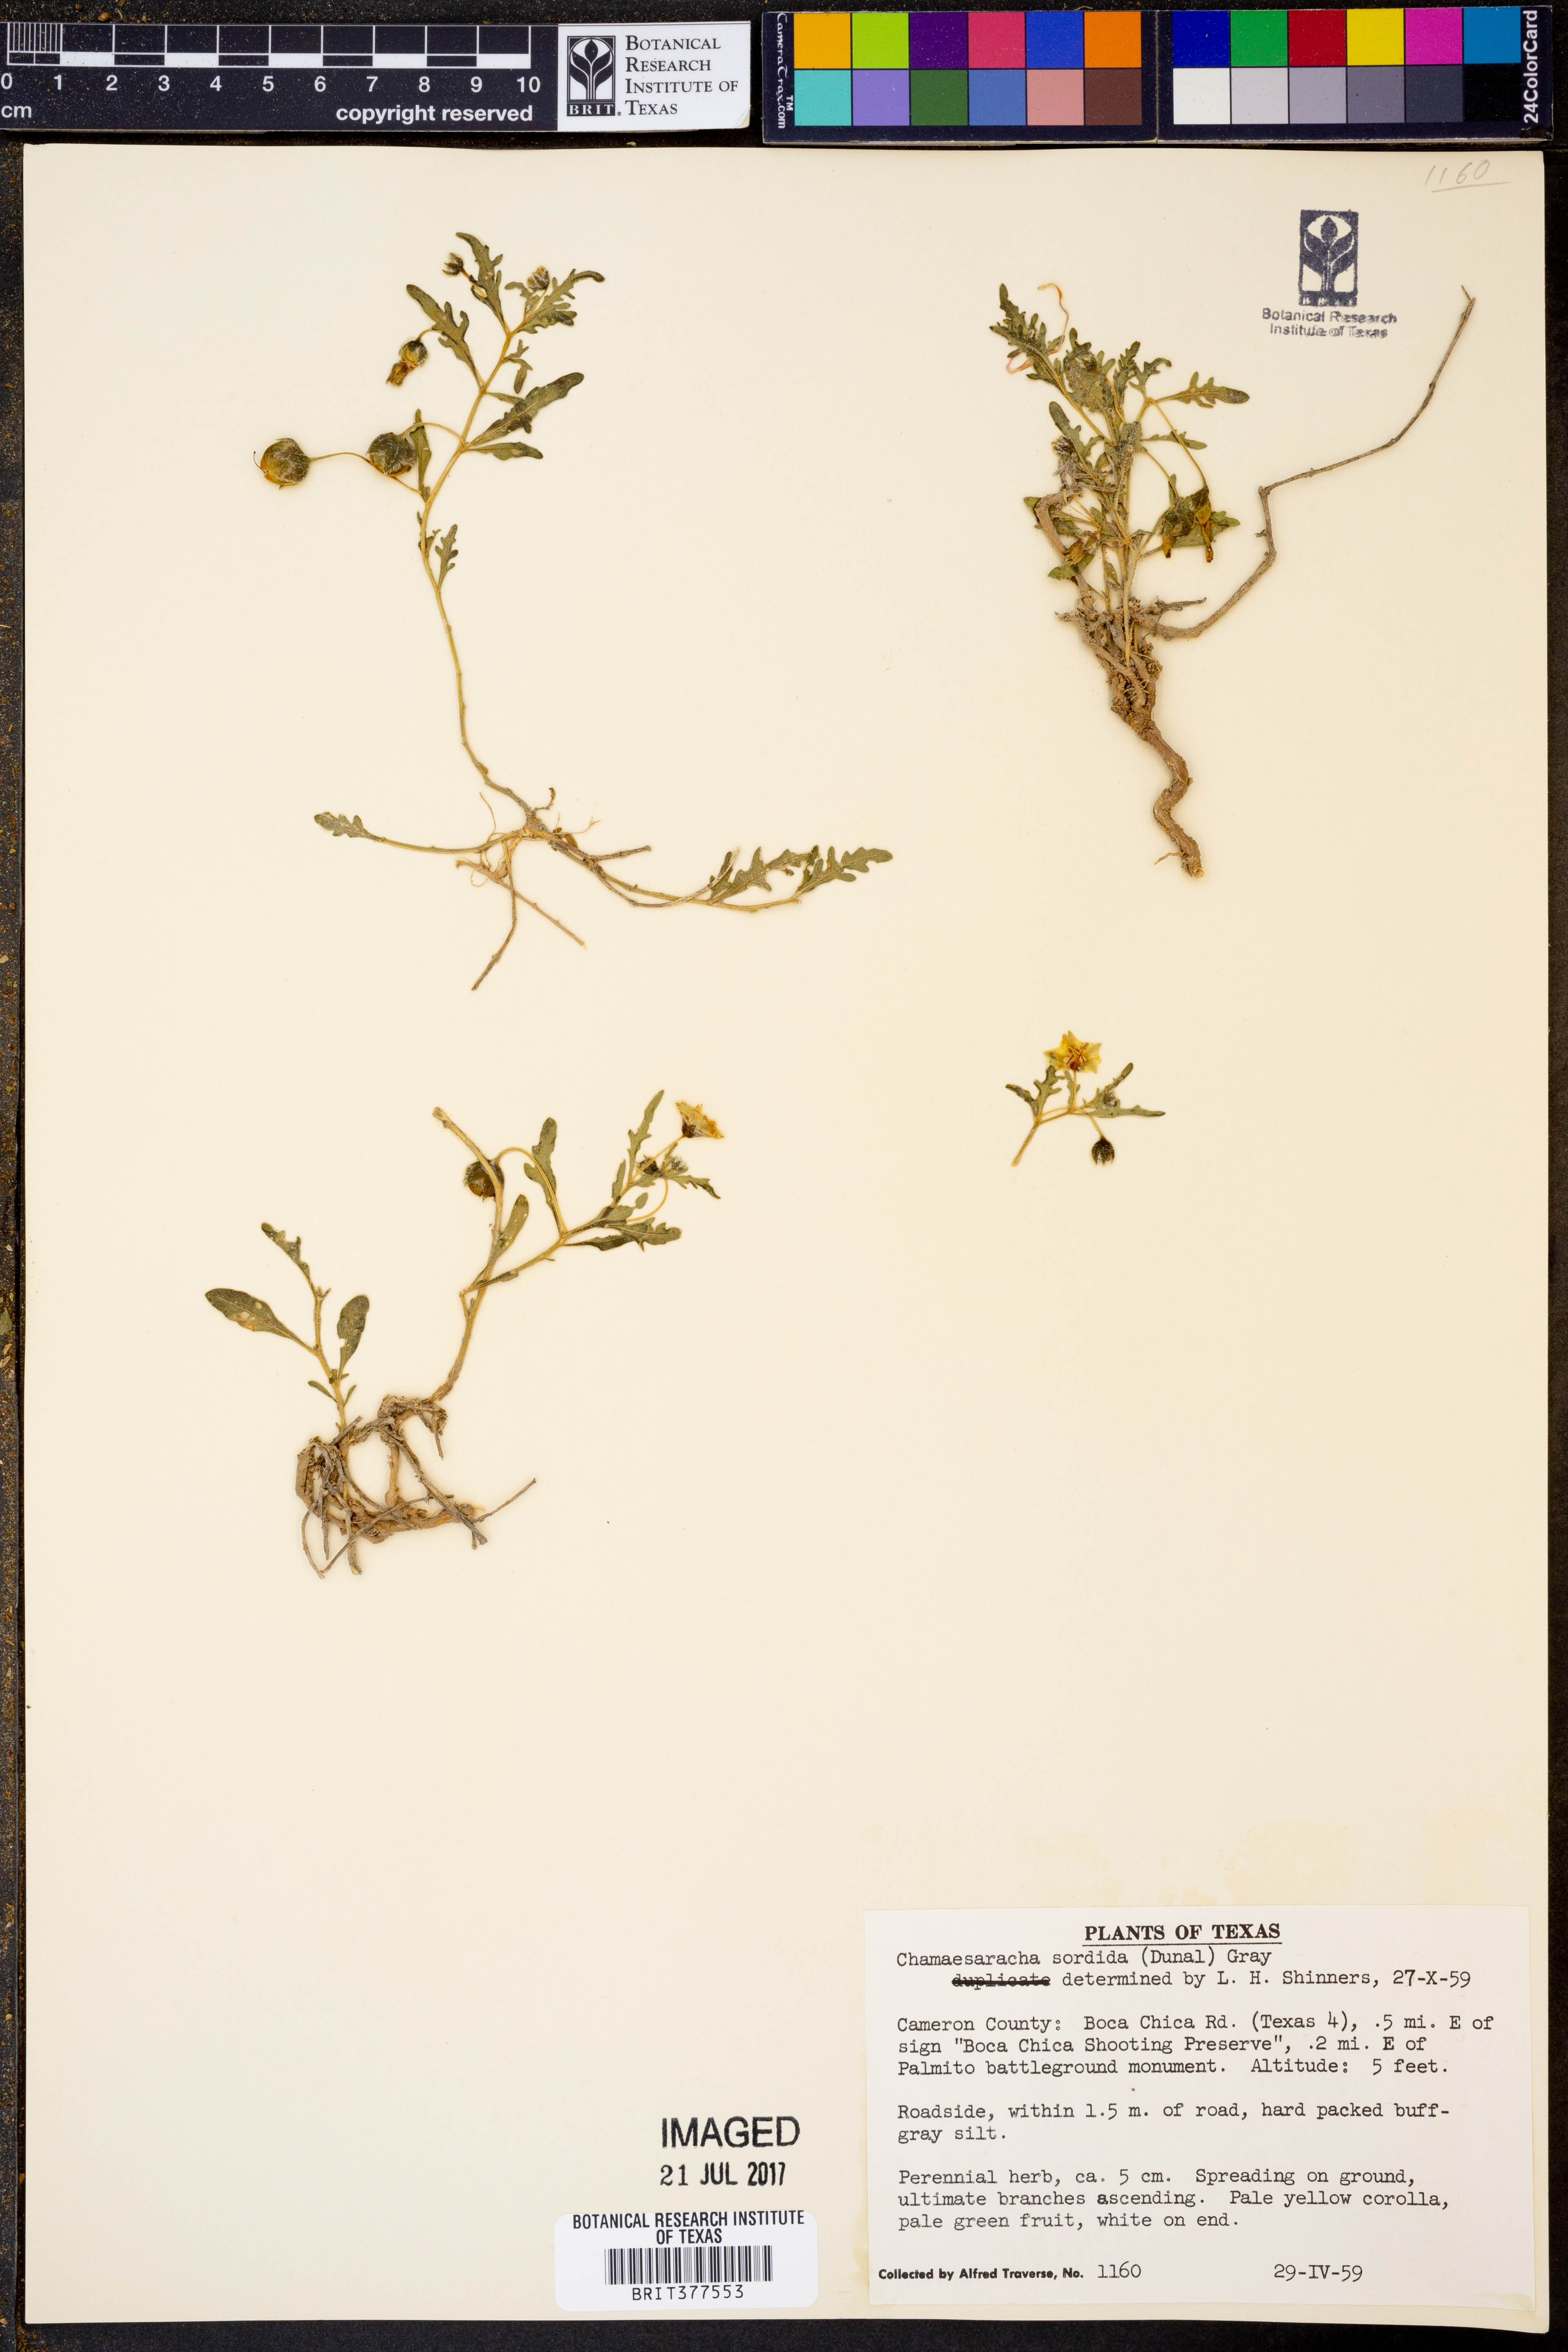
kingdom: Plantae
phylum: Tracheophyta
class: Magnoliopsida
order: Solanales
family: Solanaceae
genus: Chamaesaracha
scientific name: Chamaesaracha sordida
